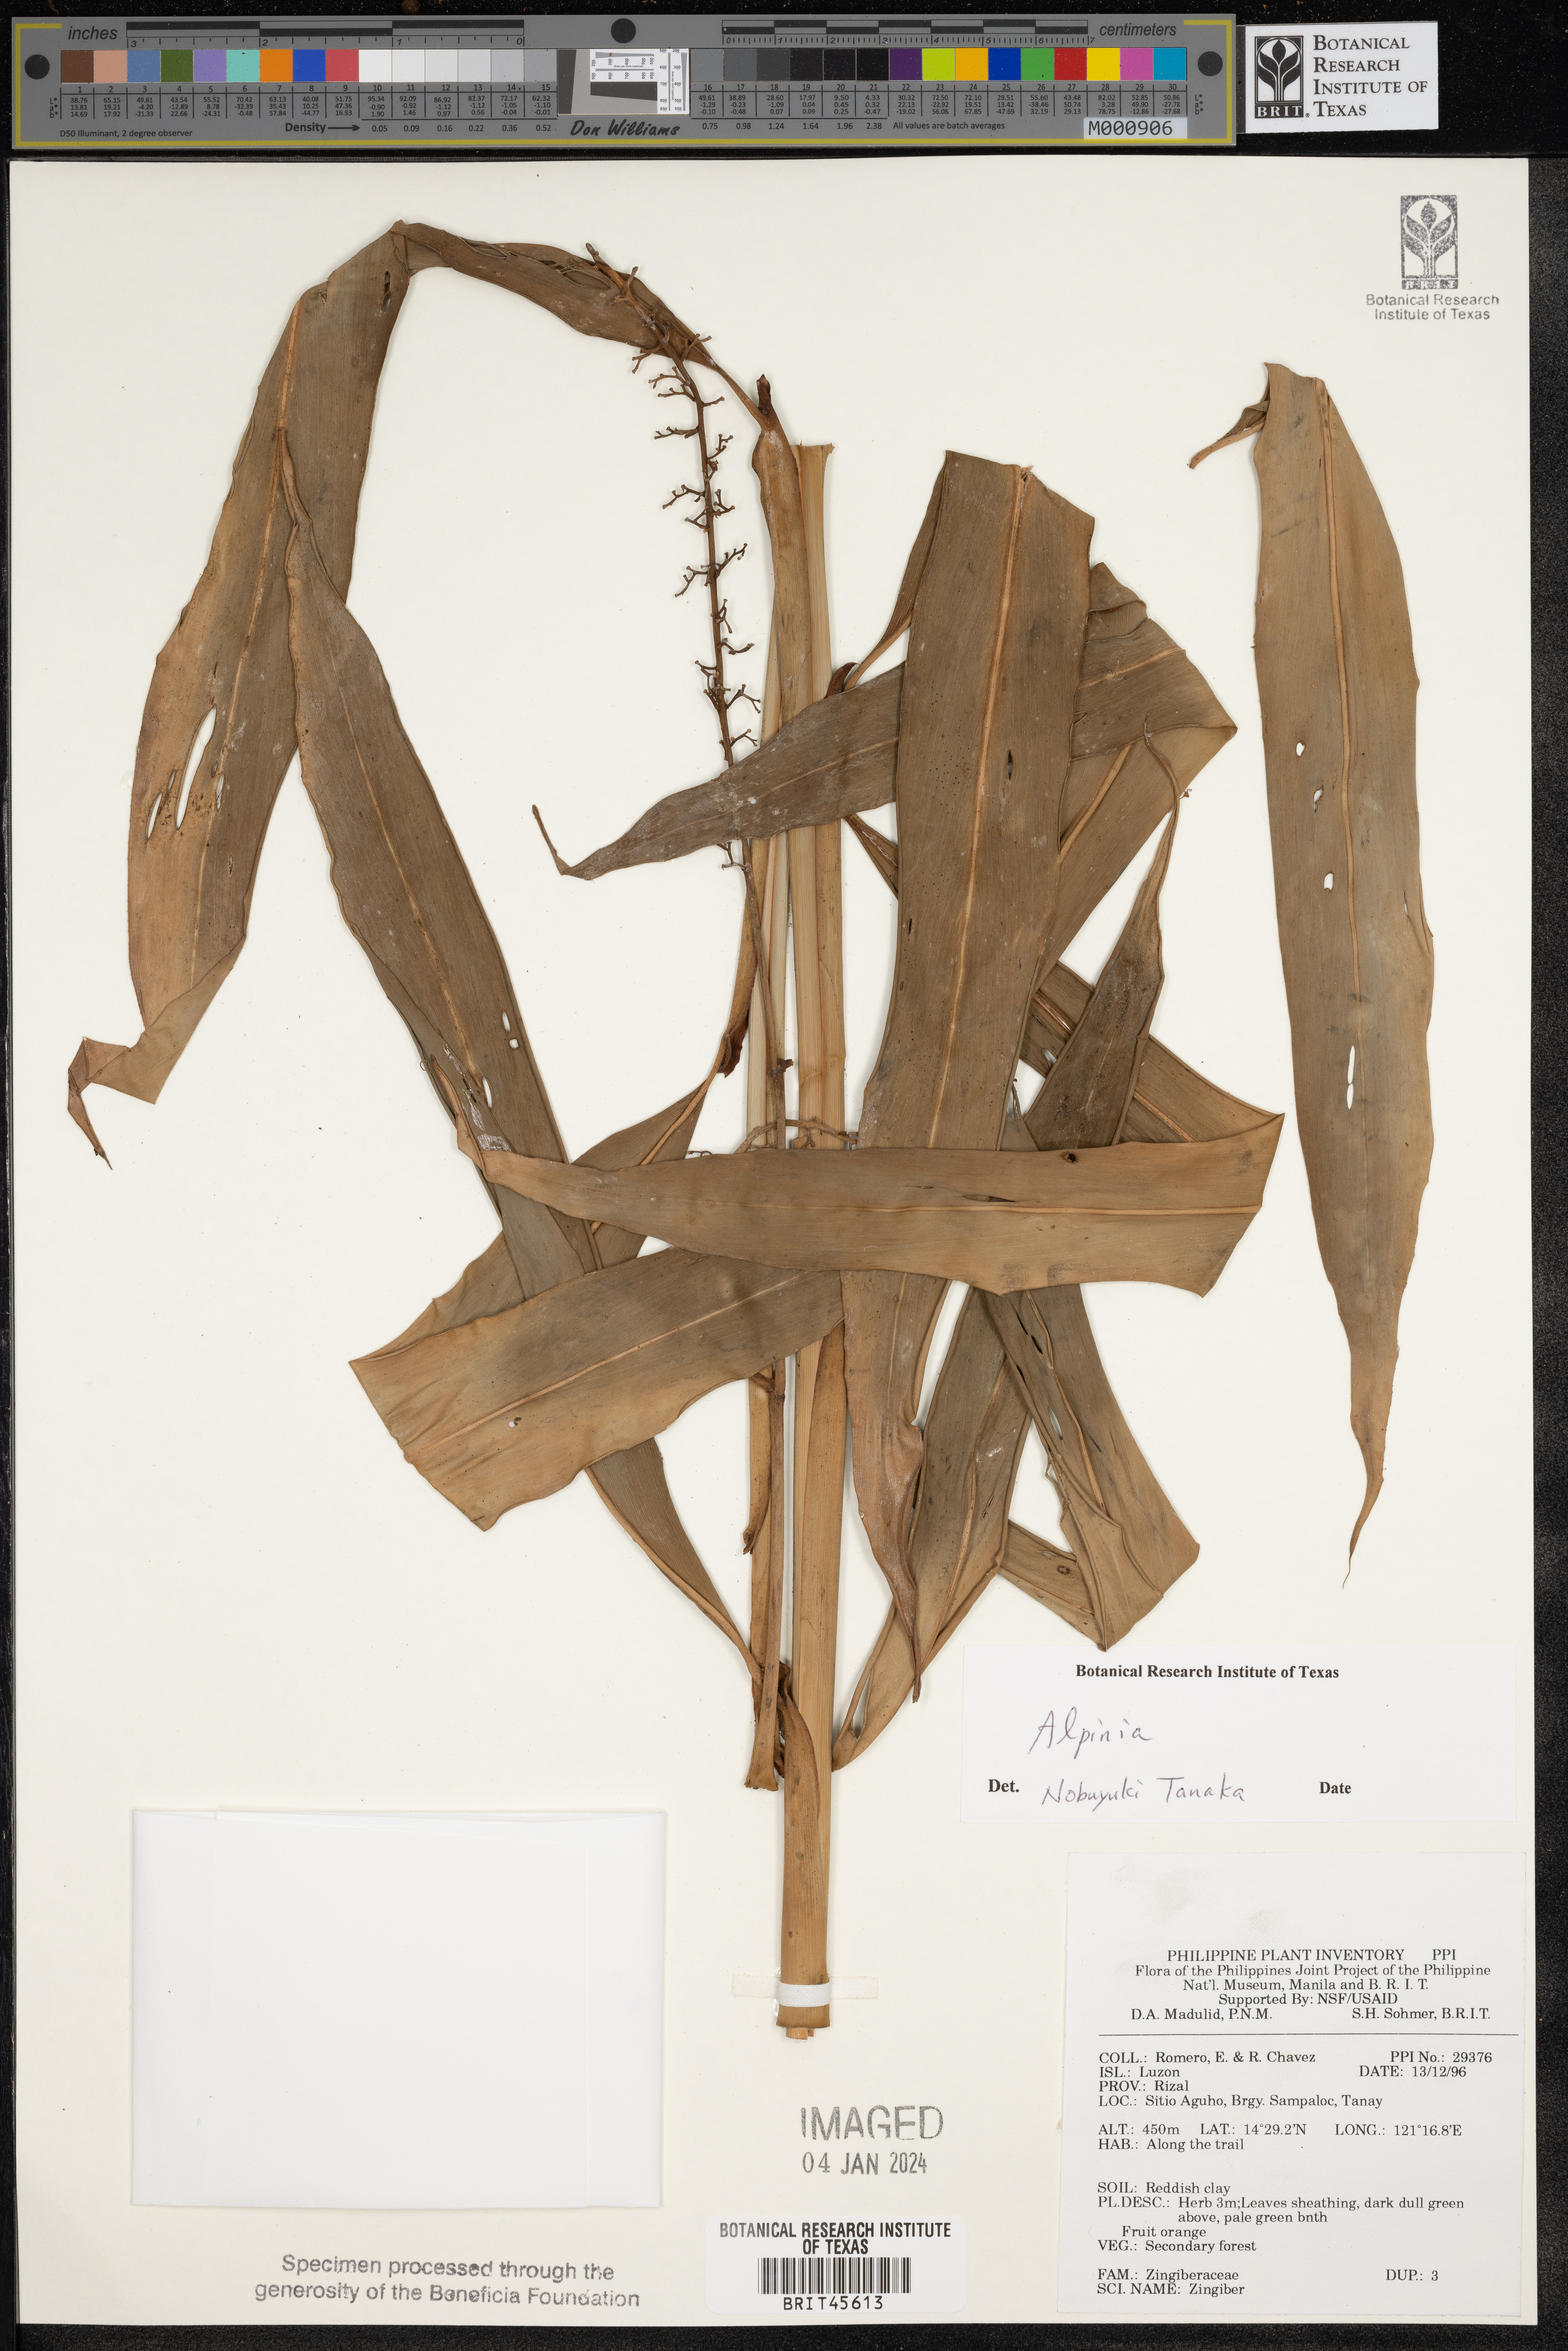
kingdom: Plantae
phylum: Tracheophyta
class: Liliopsida
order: Zingiberales
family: Zingiberaceae
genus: Zingiber
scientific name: Zingiber
